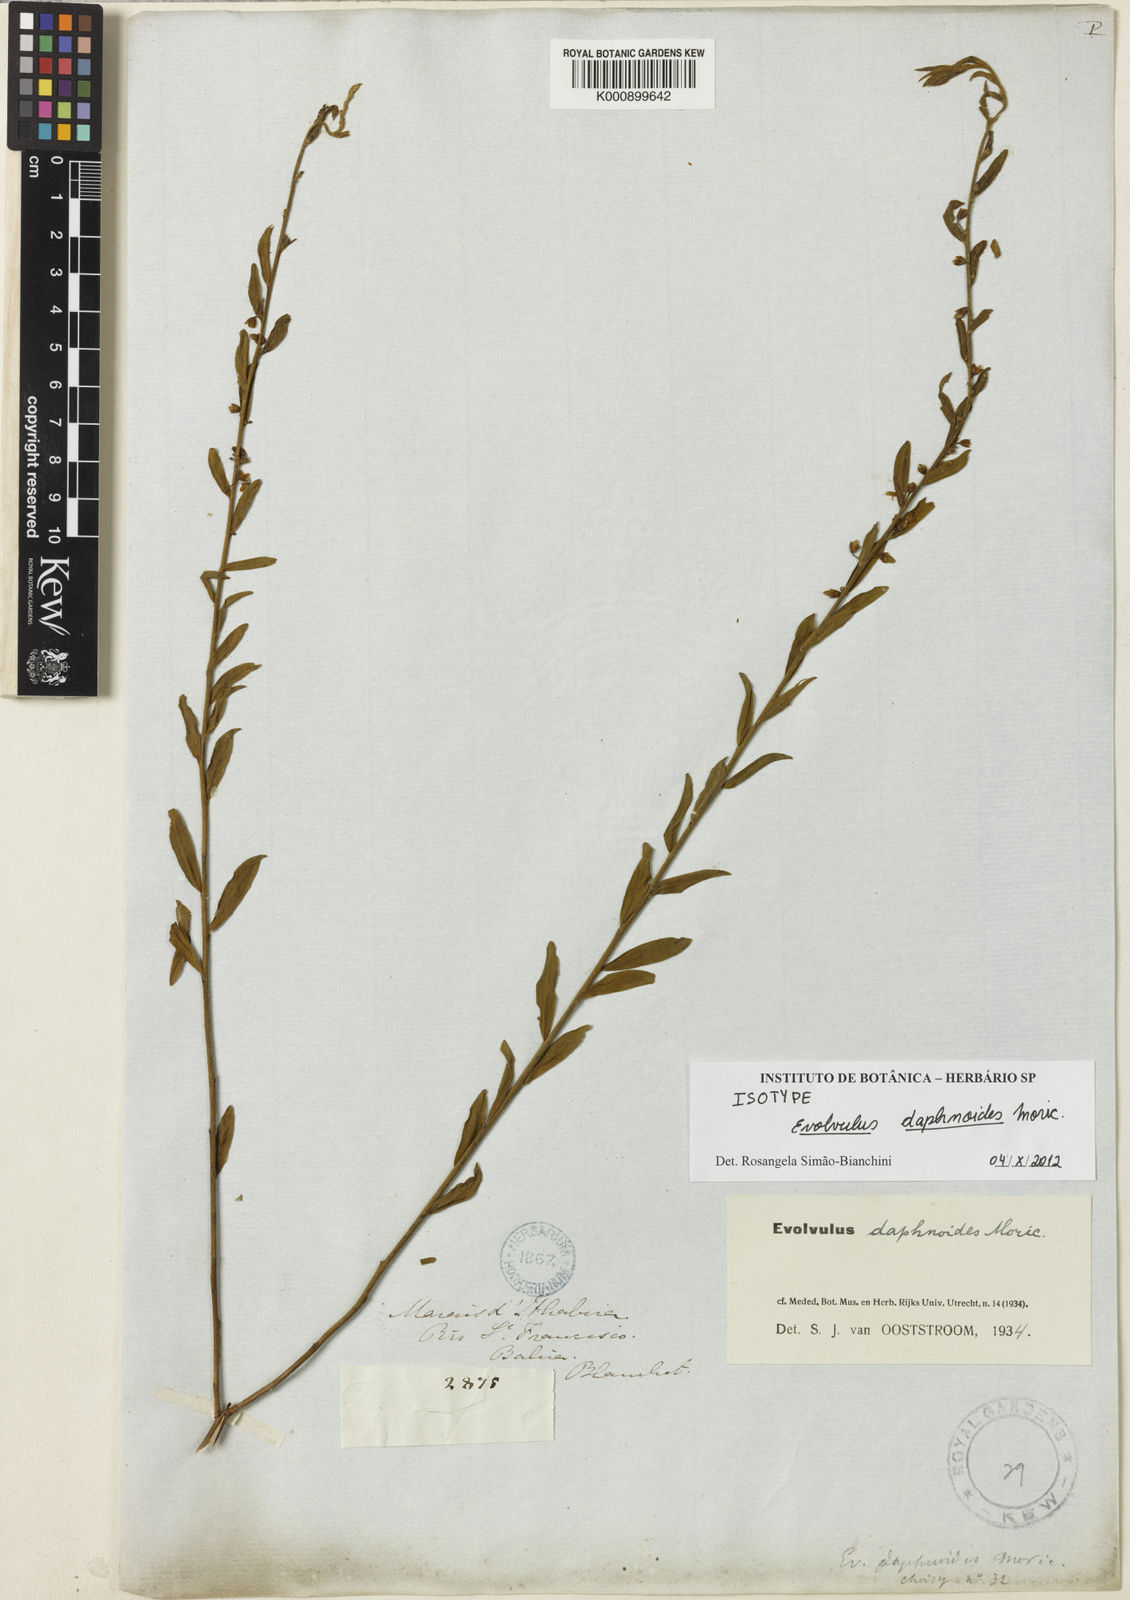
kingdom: Plantae
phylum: Tracheophyta
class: Magnoliopsida
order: Solanales
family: Convolvulaceae
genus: Evolvulus
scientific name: Evolvulus daphnoides
